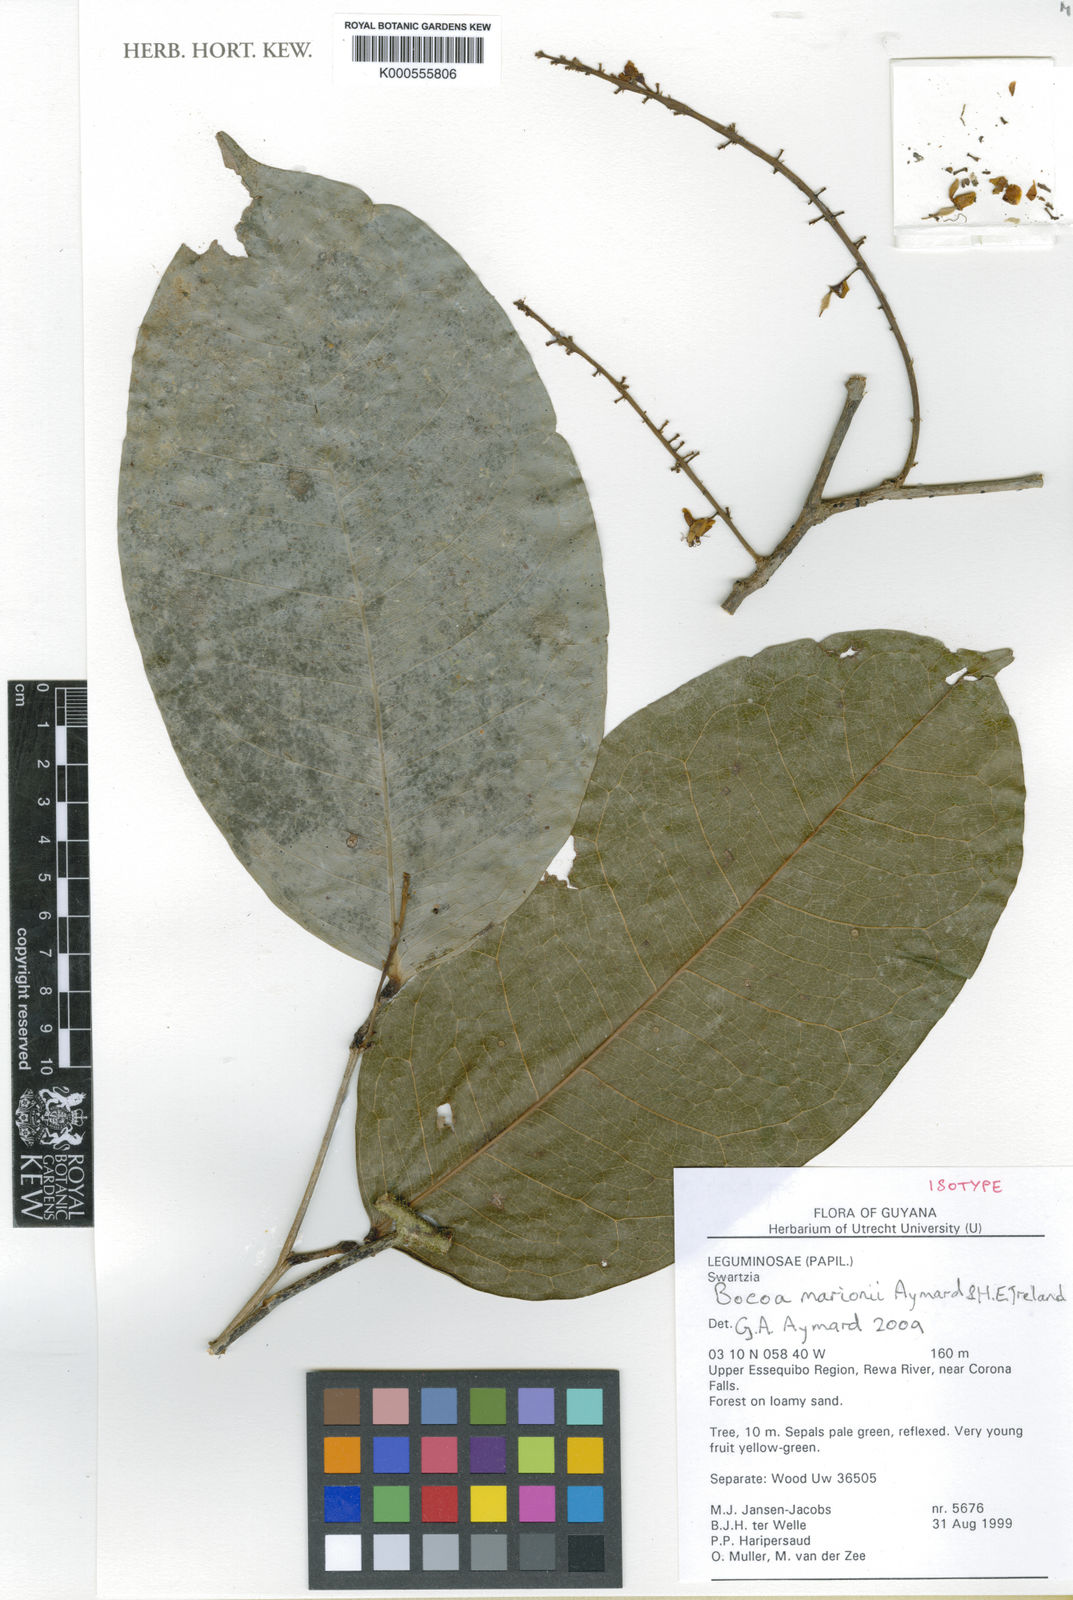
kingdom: Plantae
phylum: Tracheophyta
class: Magnoliopsida
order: Fabales
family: Fabaceae
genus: Crudia
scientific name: Crudia aromatica
